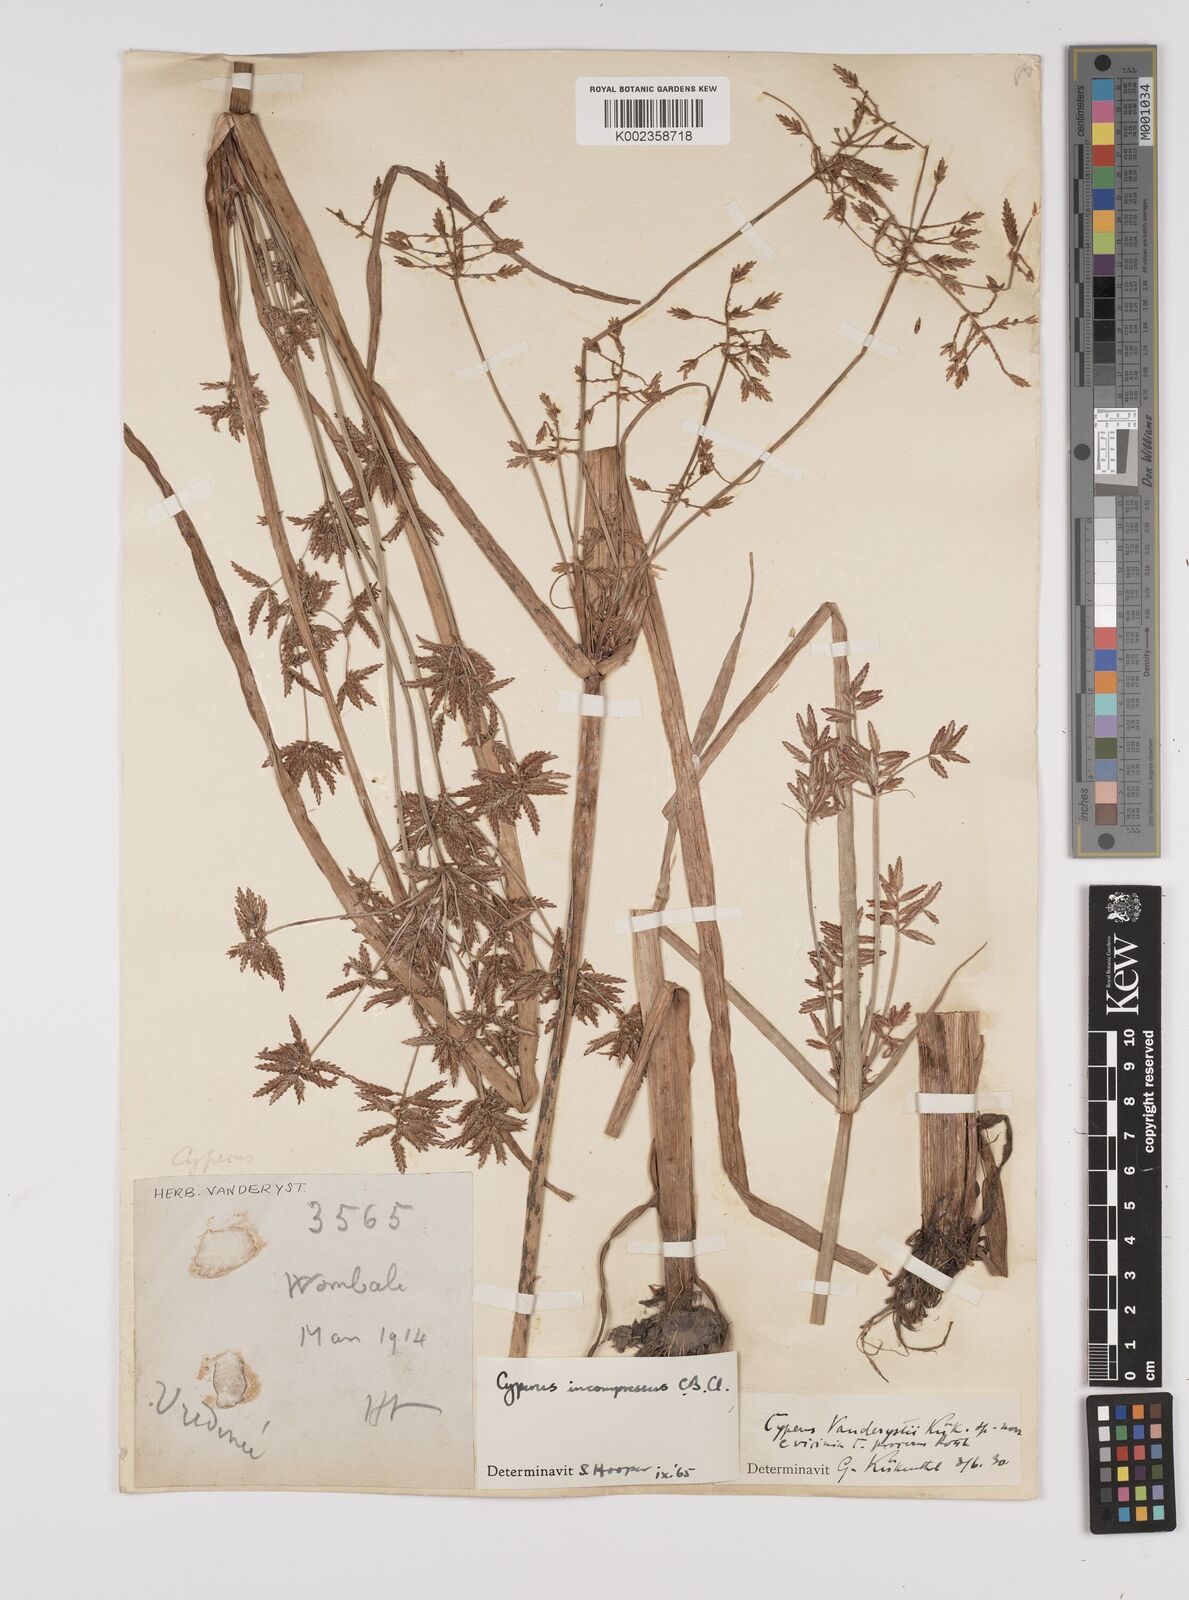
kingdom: Plantae
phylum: Tracheophyta
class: Liliopsida
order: Poales
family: Cyperaceae
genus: Cyperus
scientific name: Cyperus incompressus
